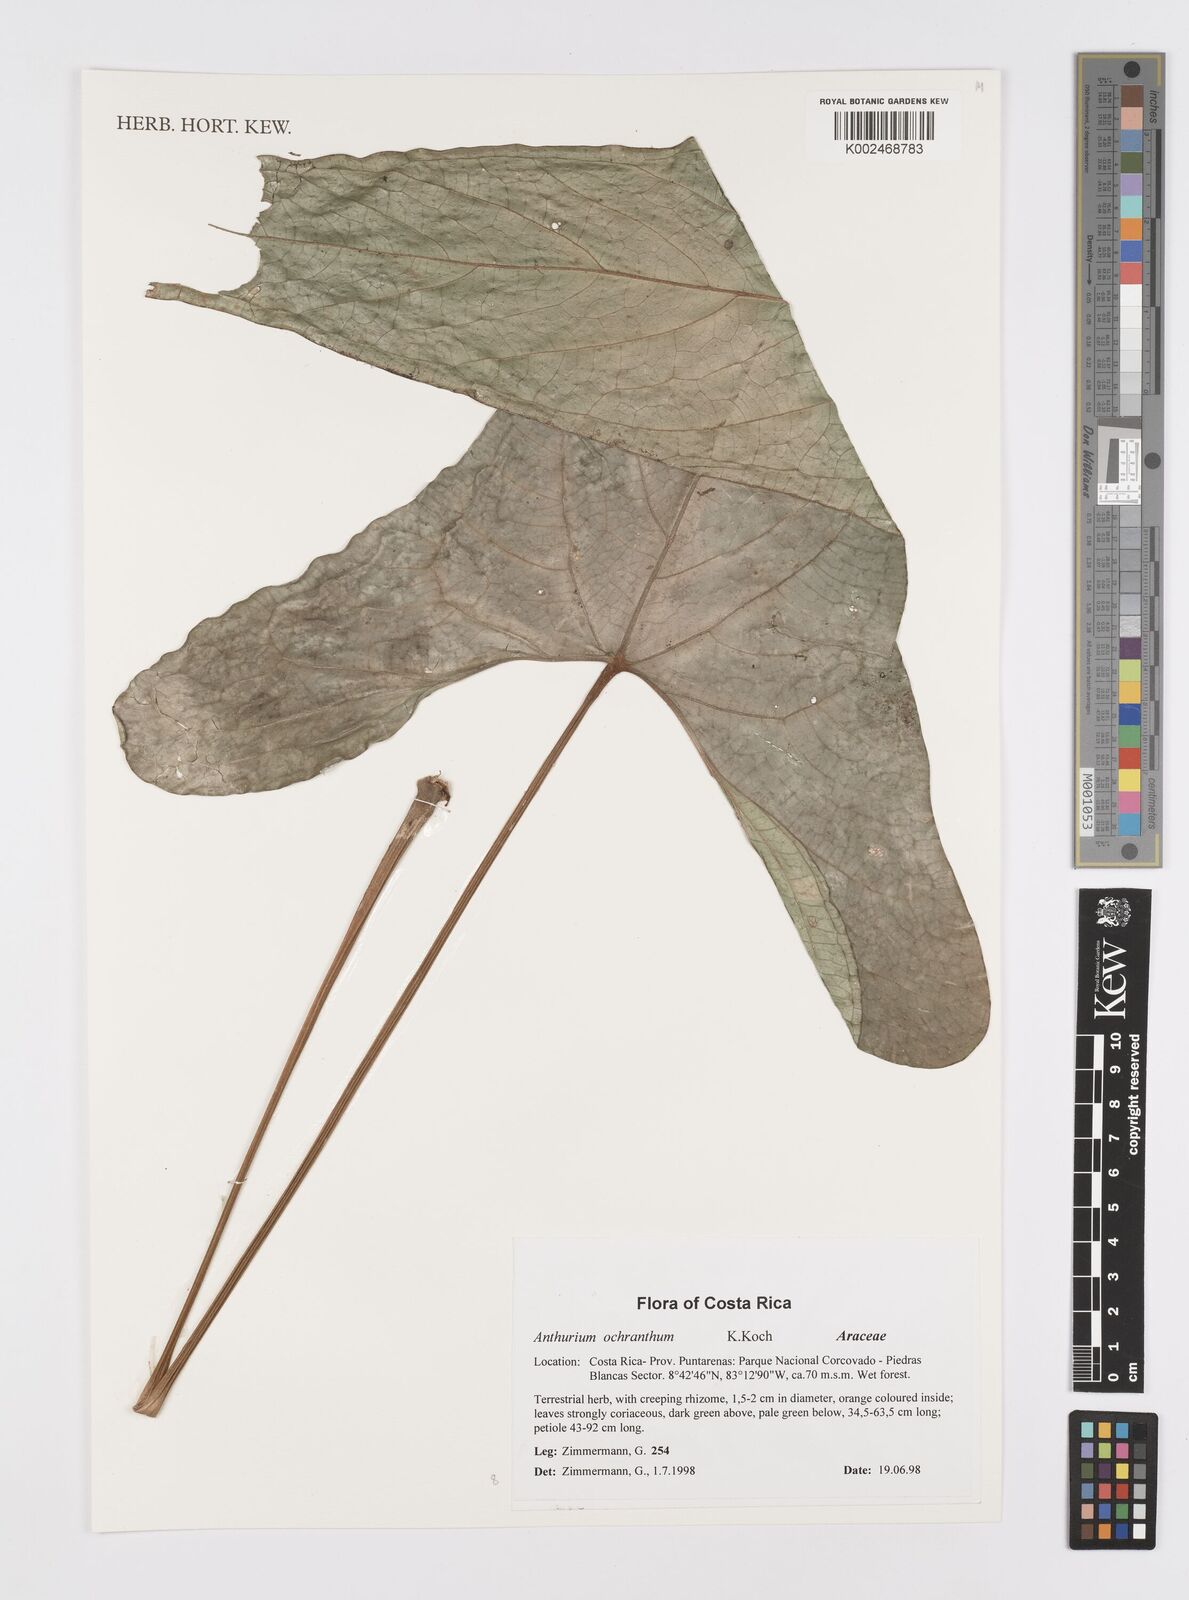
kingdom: Plantae
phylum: Tracheophyta
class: Liliopsida
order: Alismatales
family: Araceae
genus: Anthurium
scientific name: Anthurium ochranthum
